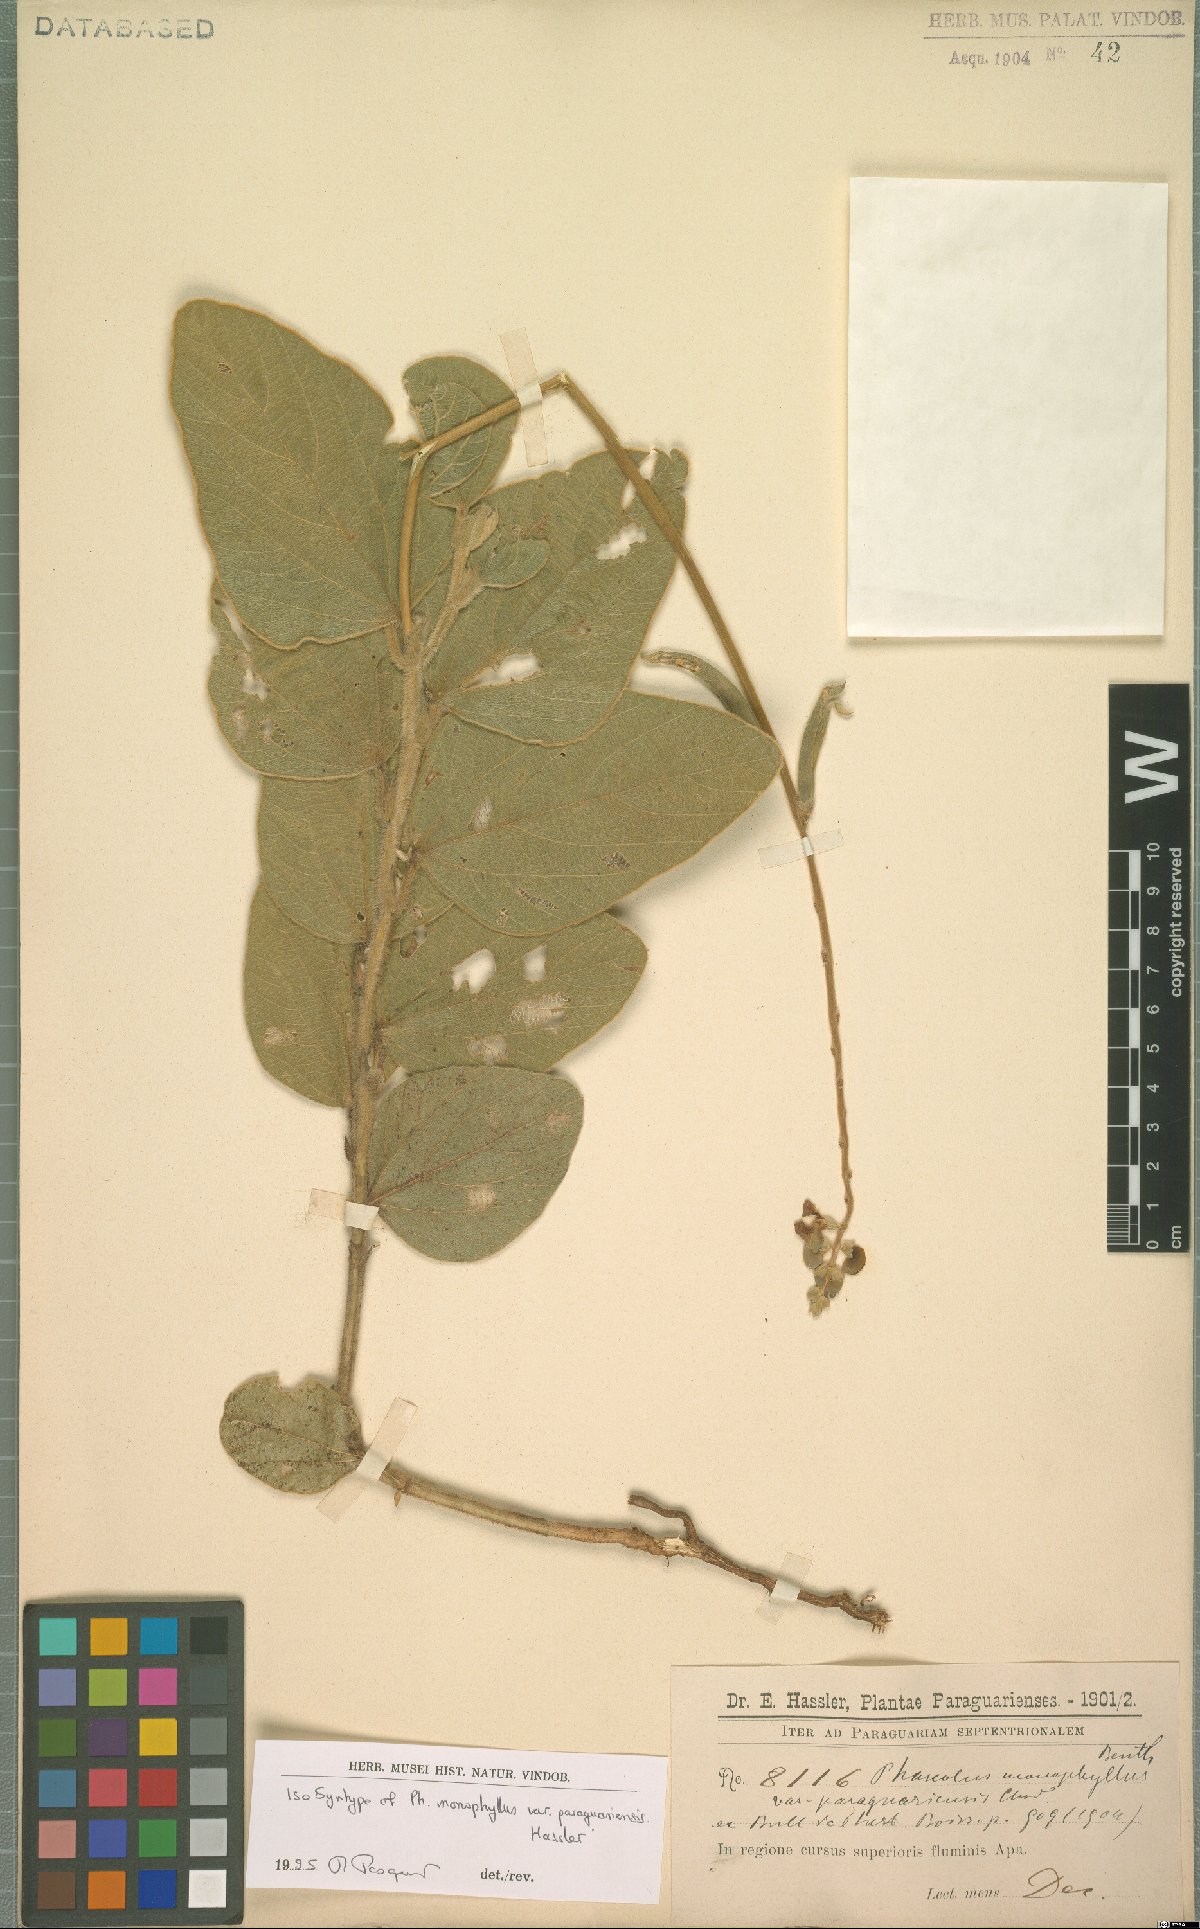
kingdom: Plantae
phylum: Tracheophyta
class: Magnoliopsida
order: Fabales
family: Fabaceae
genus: Macroptilium
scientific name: Macroptilium monophyllum
